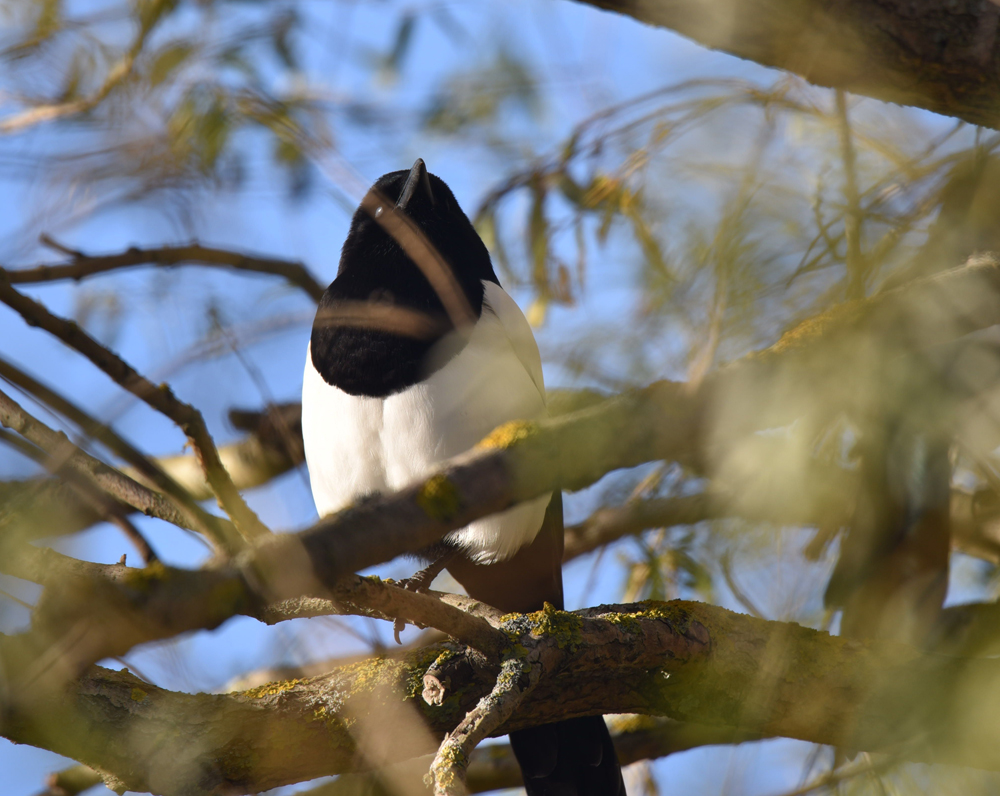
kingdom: Animalia
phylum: Chordata
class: Aves
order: Passeriformes
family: Corvidae
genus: Pica
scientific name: Pica pica
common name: Eurasian magpie
